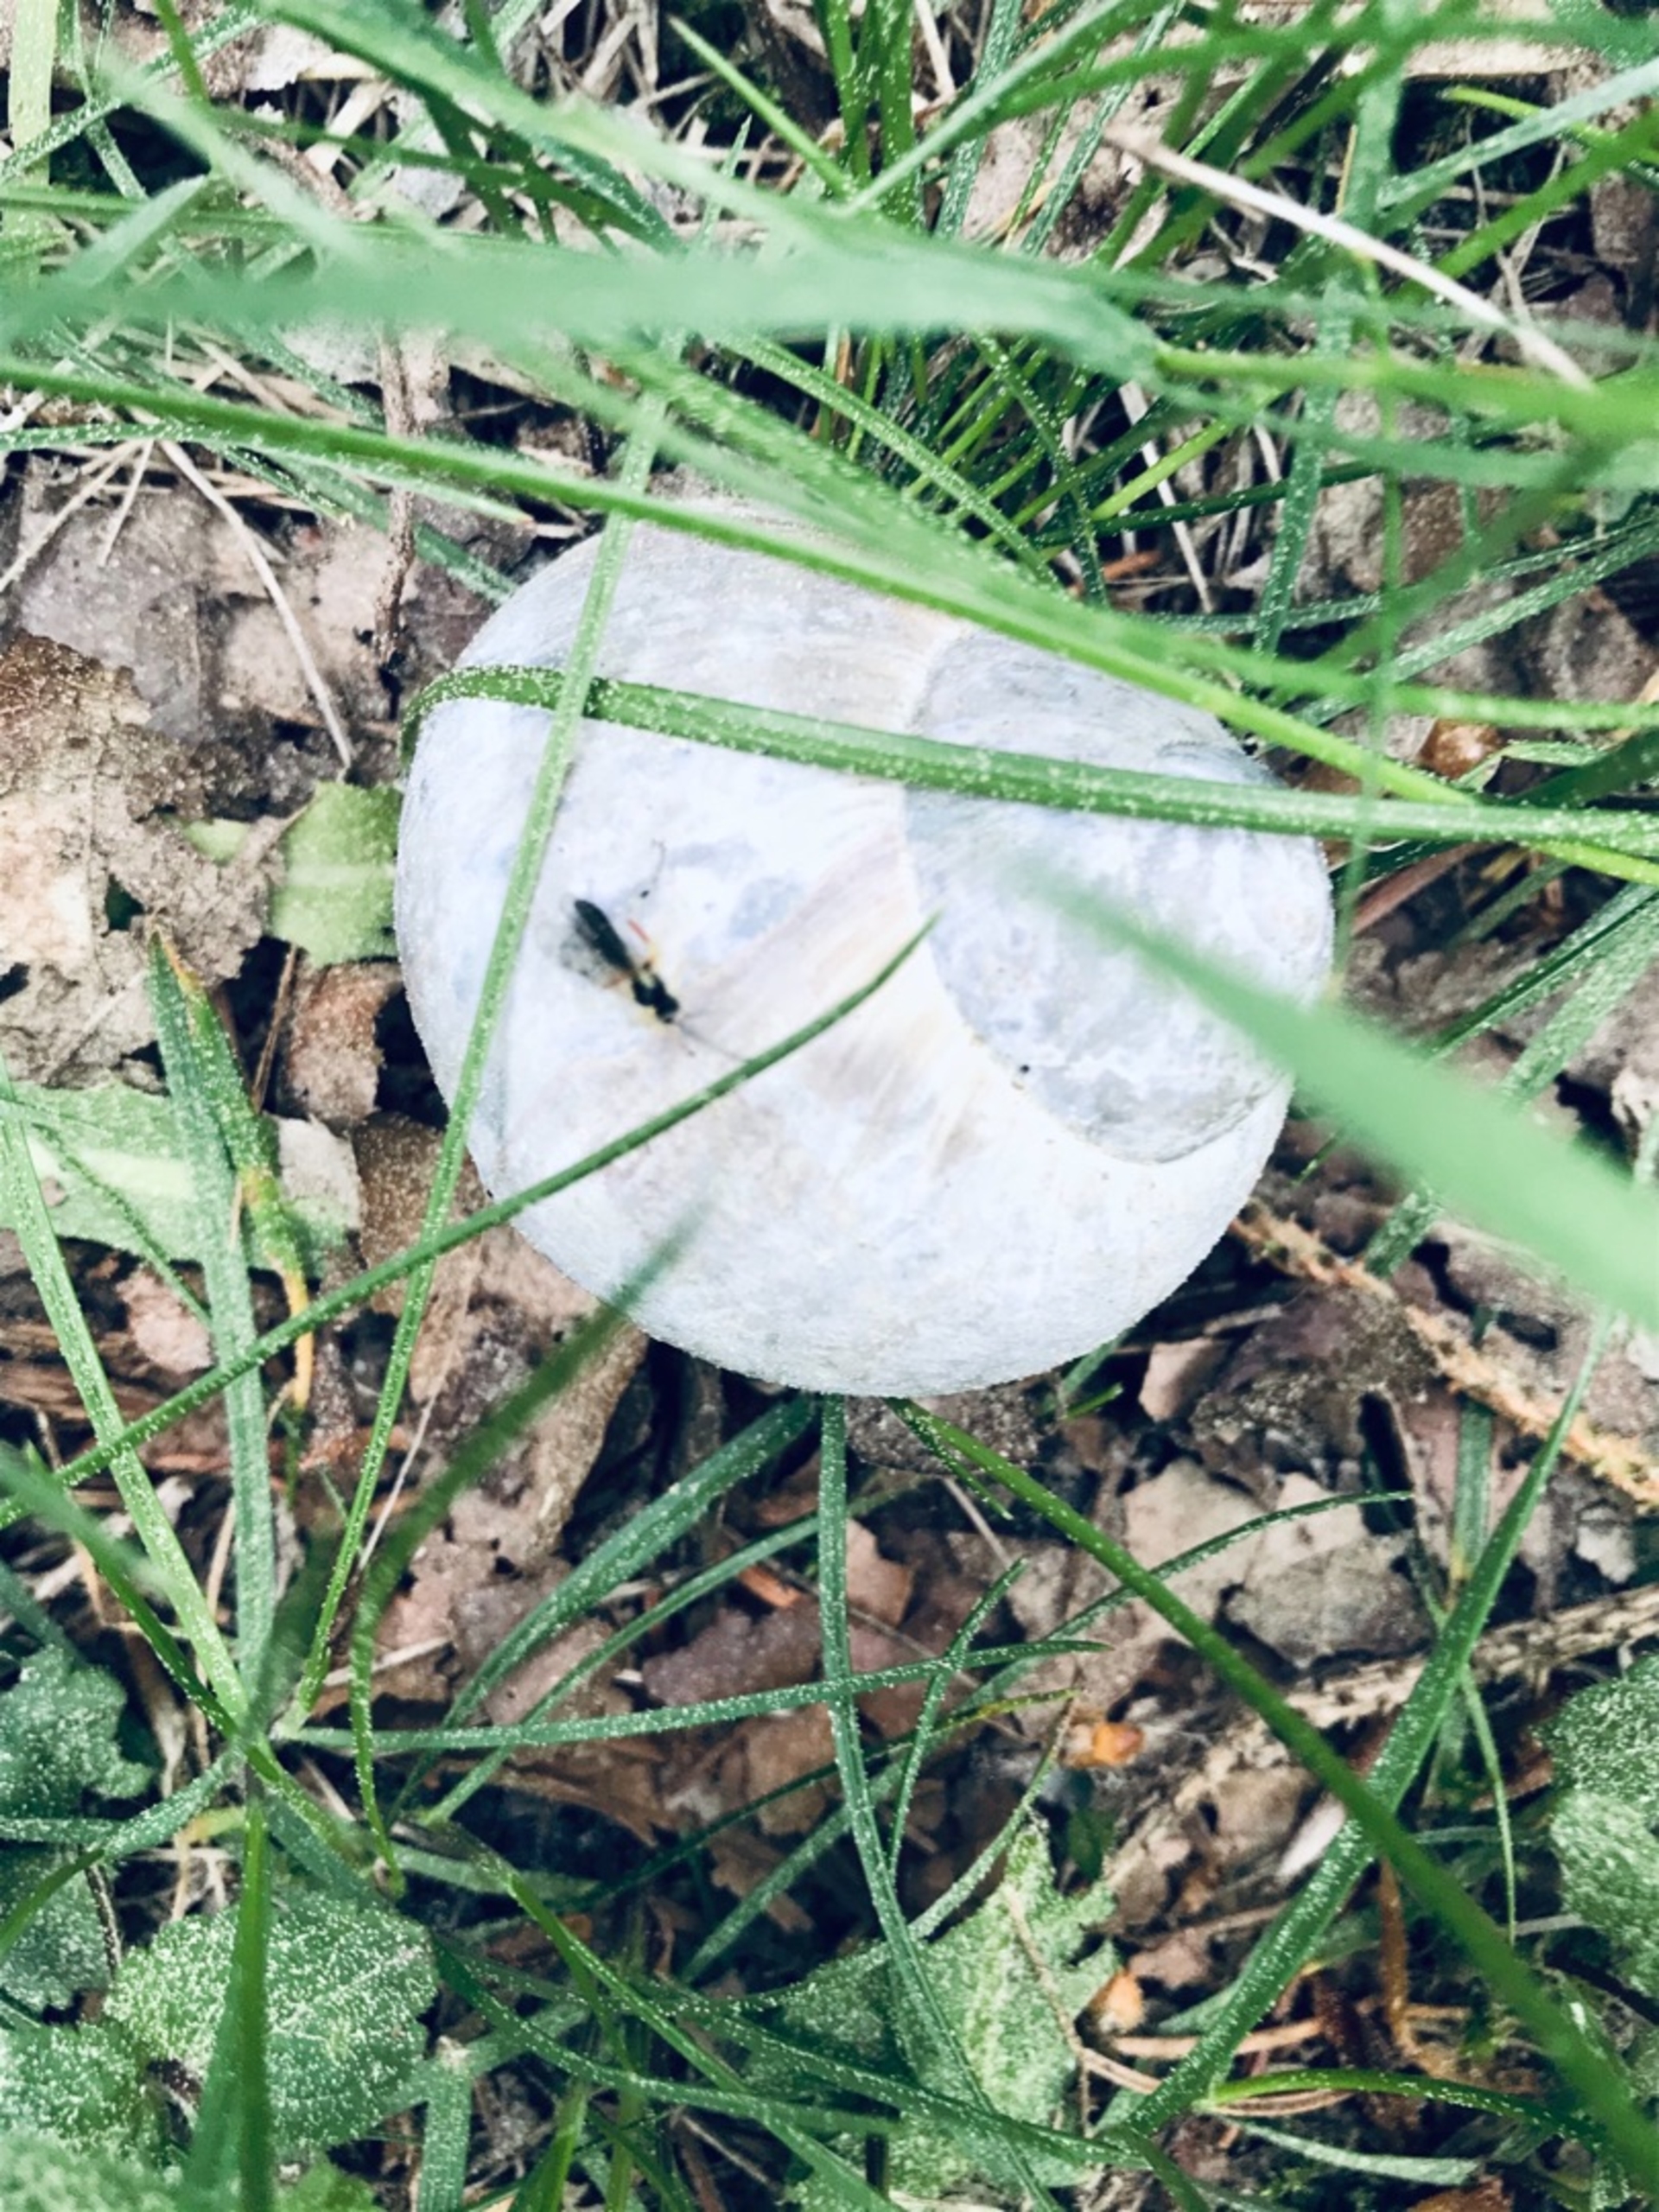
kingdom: Animalia
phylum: Arthropoda
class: Insecta
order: Hymenoptera
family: Ichneumonidae
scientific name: Ichneumonidae
